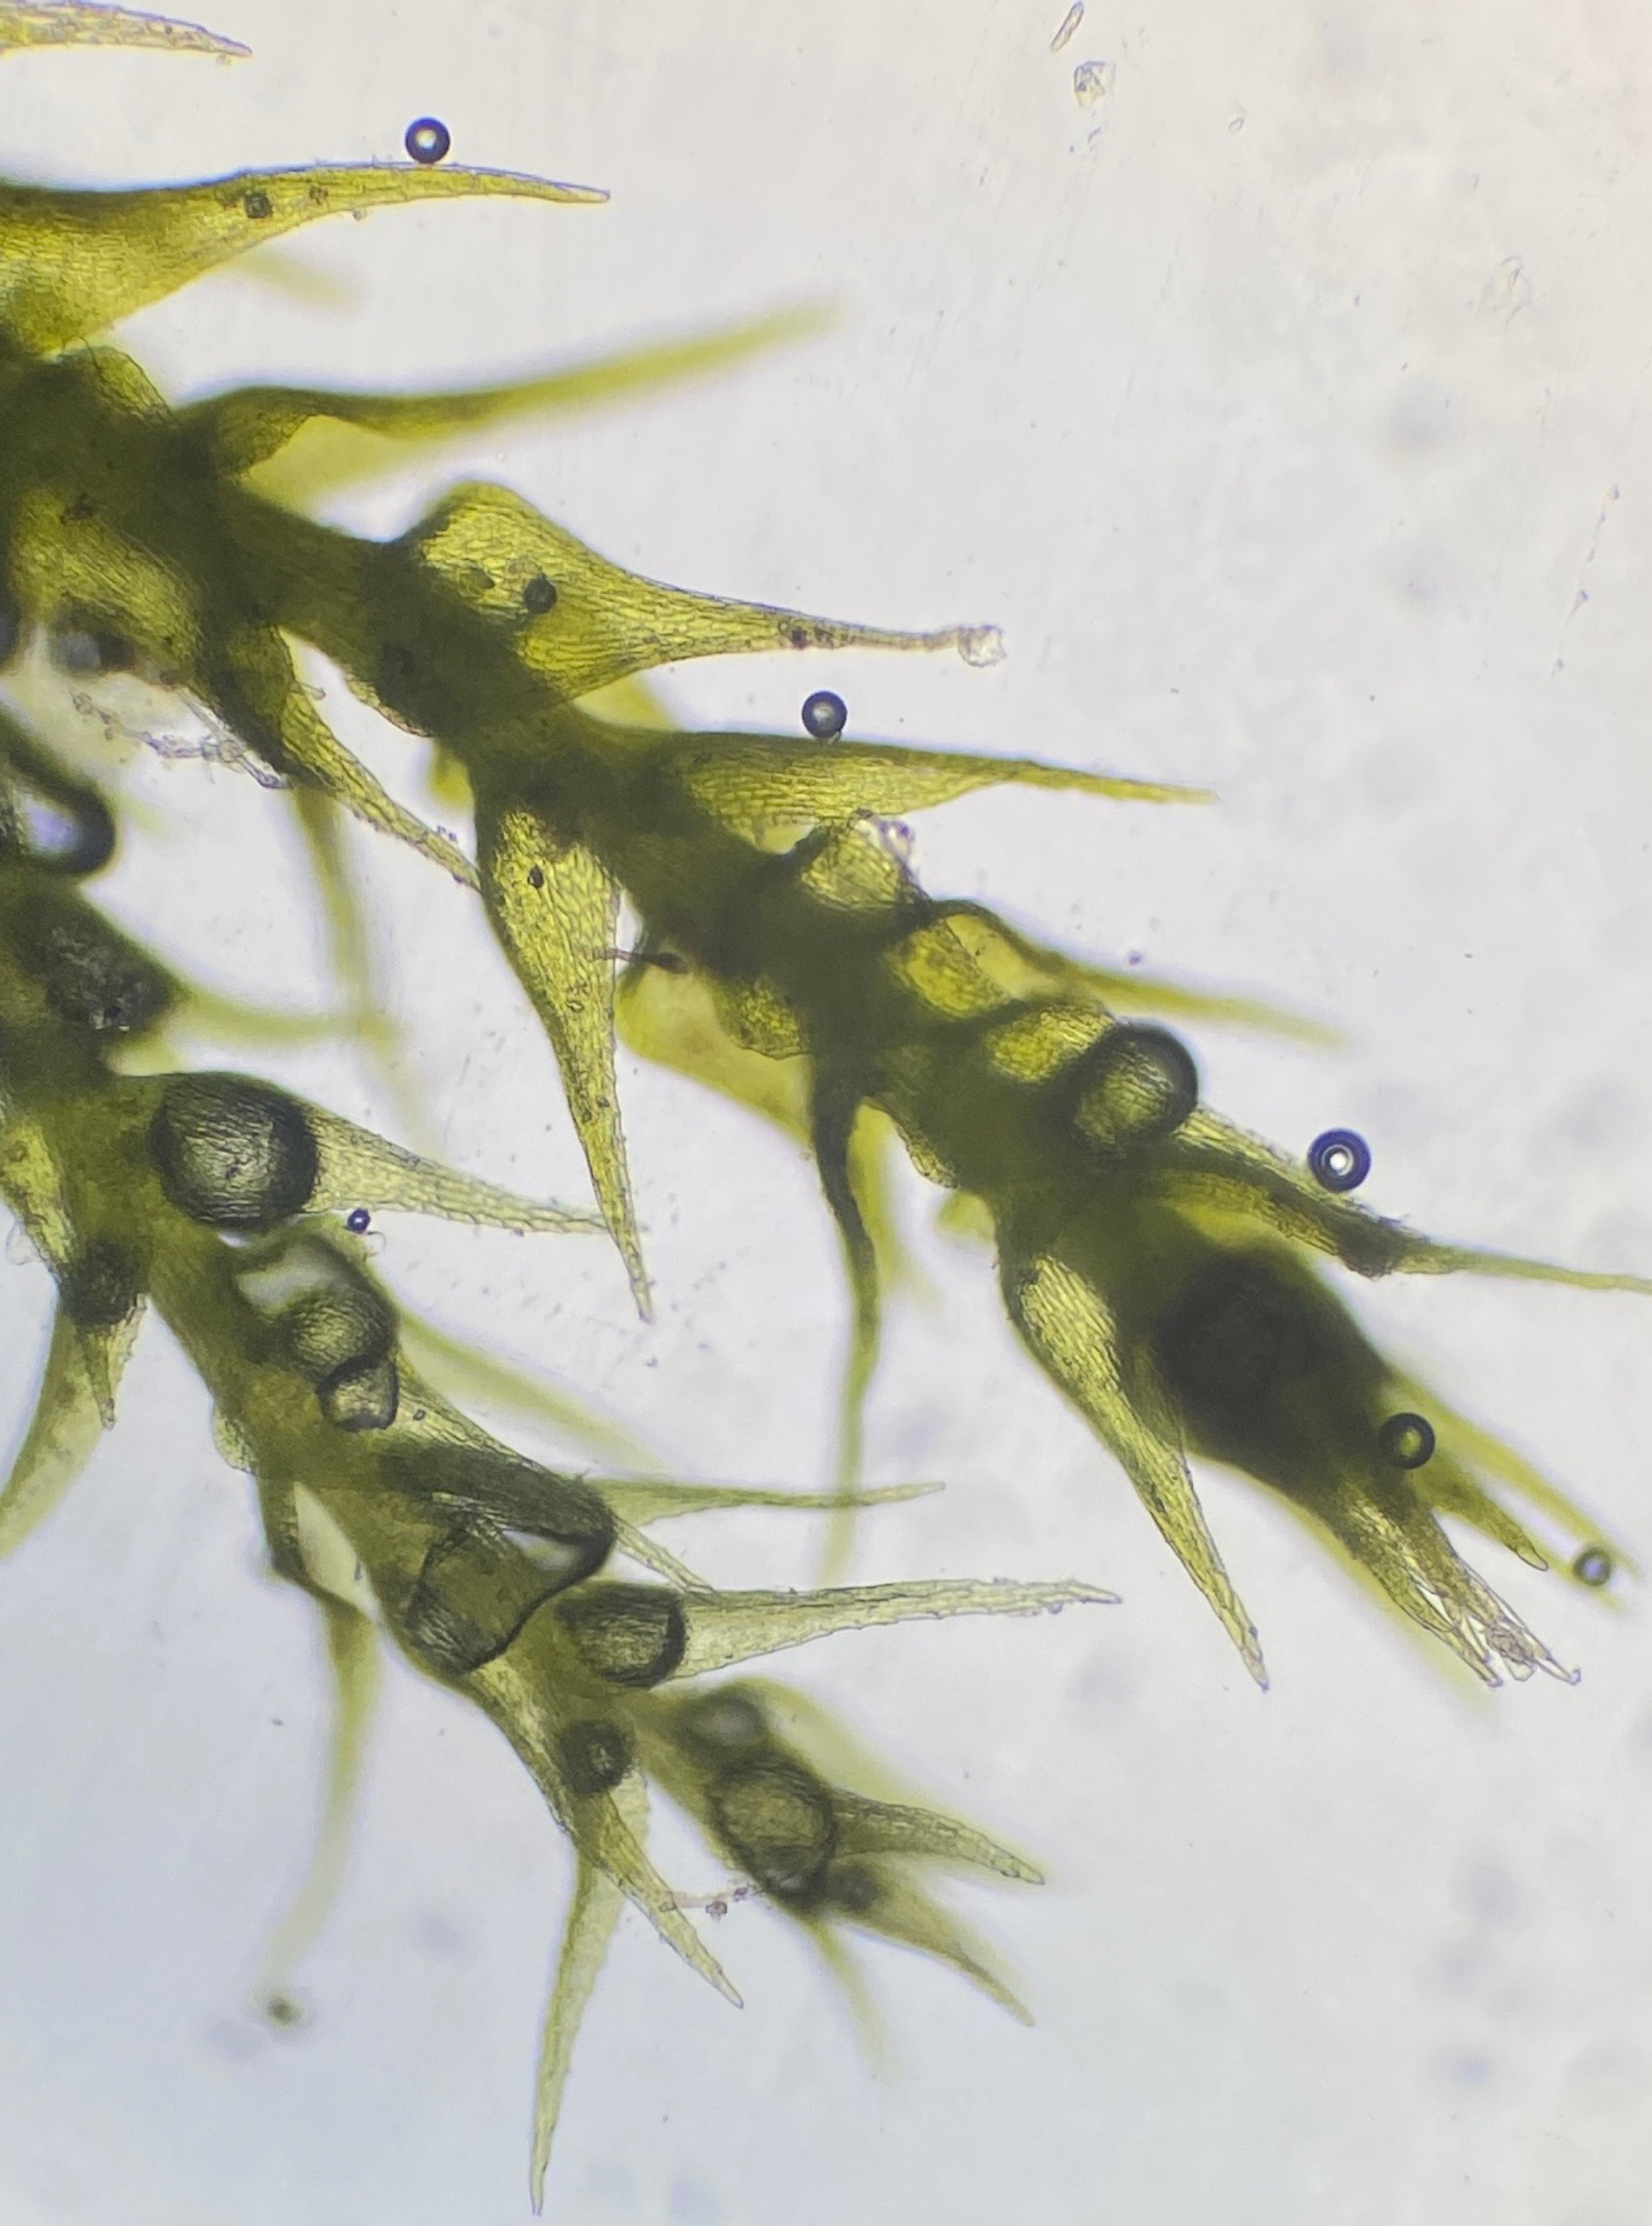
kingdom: Plantae
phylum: Bryophyta
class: Bryopsida
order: Hypnales
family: Amblystegiaceae
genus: Campylophyllopsis
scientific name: Campylophyllopsis calcarea
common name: Kalk-guldstjernemos
